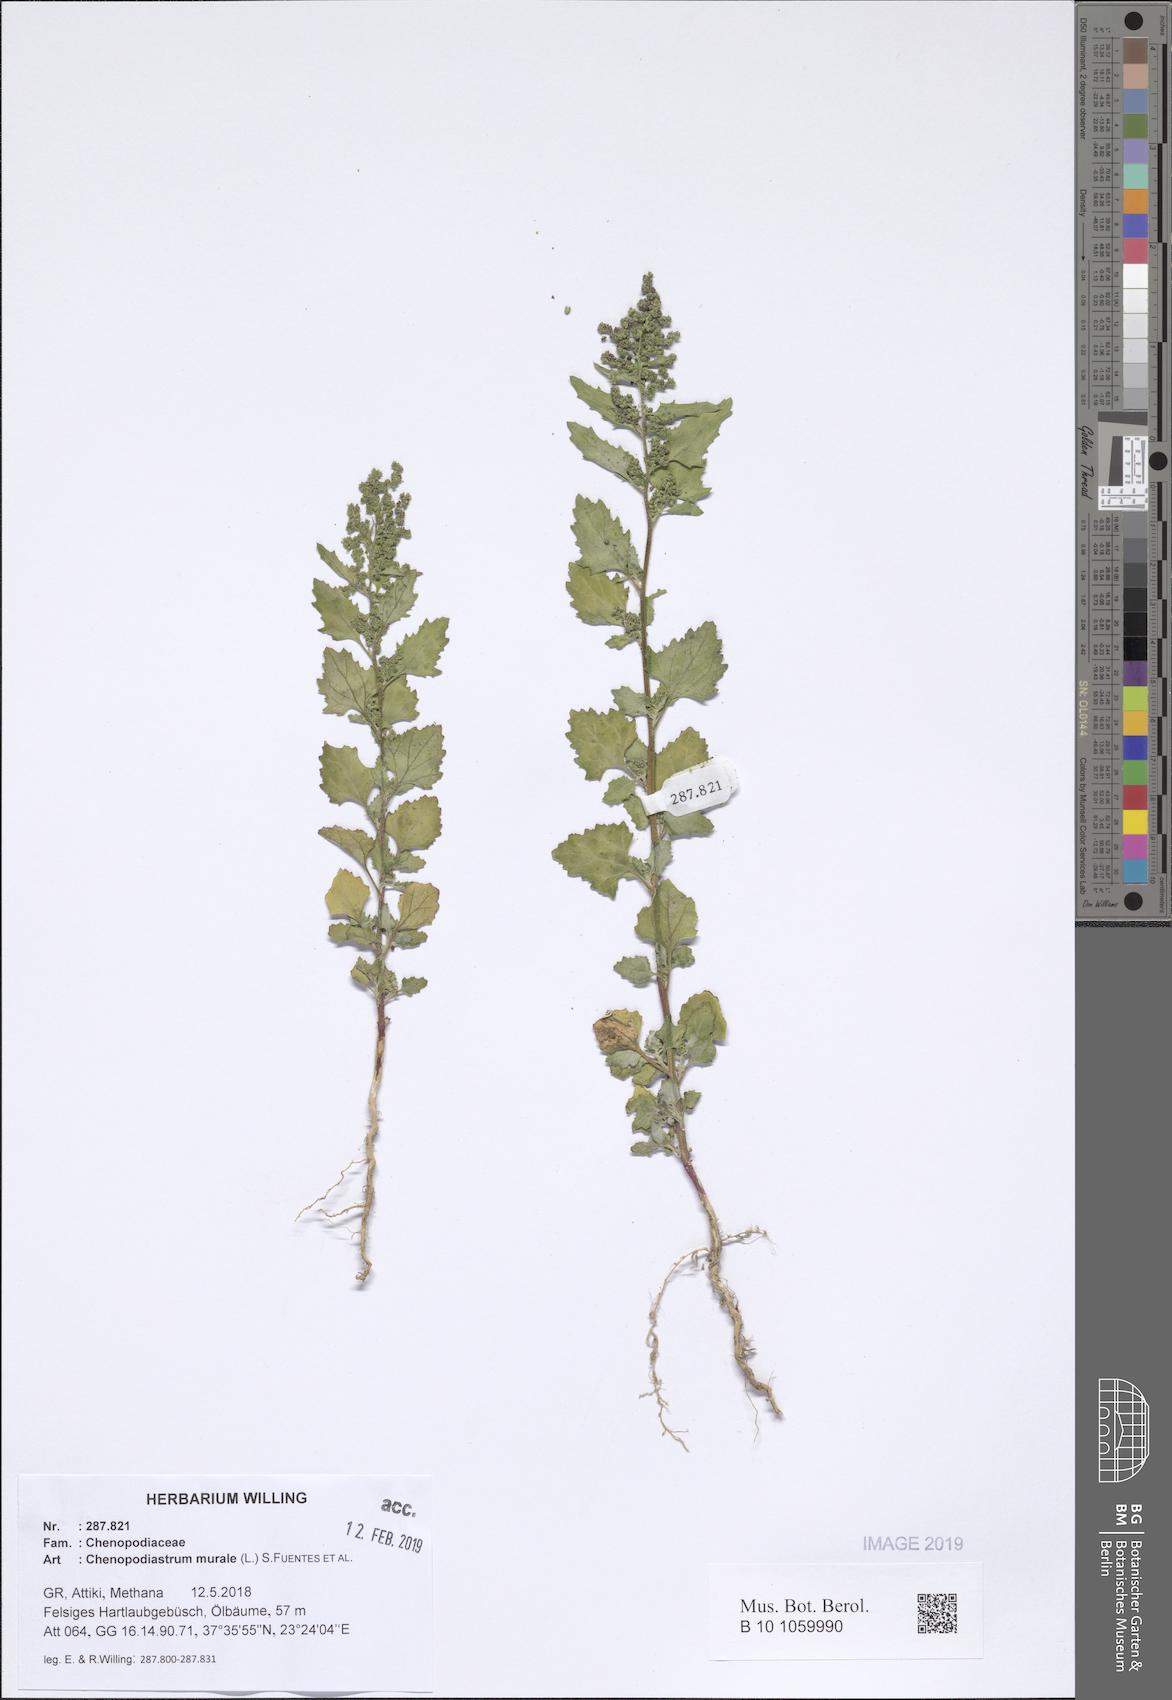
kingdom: Plantae
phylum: Tracheophyta
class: Magnoliopsida
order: Caryophyllales
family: Amaranthaceae
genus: Chenopodiastrum
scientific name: Chenopodiastrum murale
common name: Sowbane
